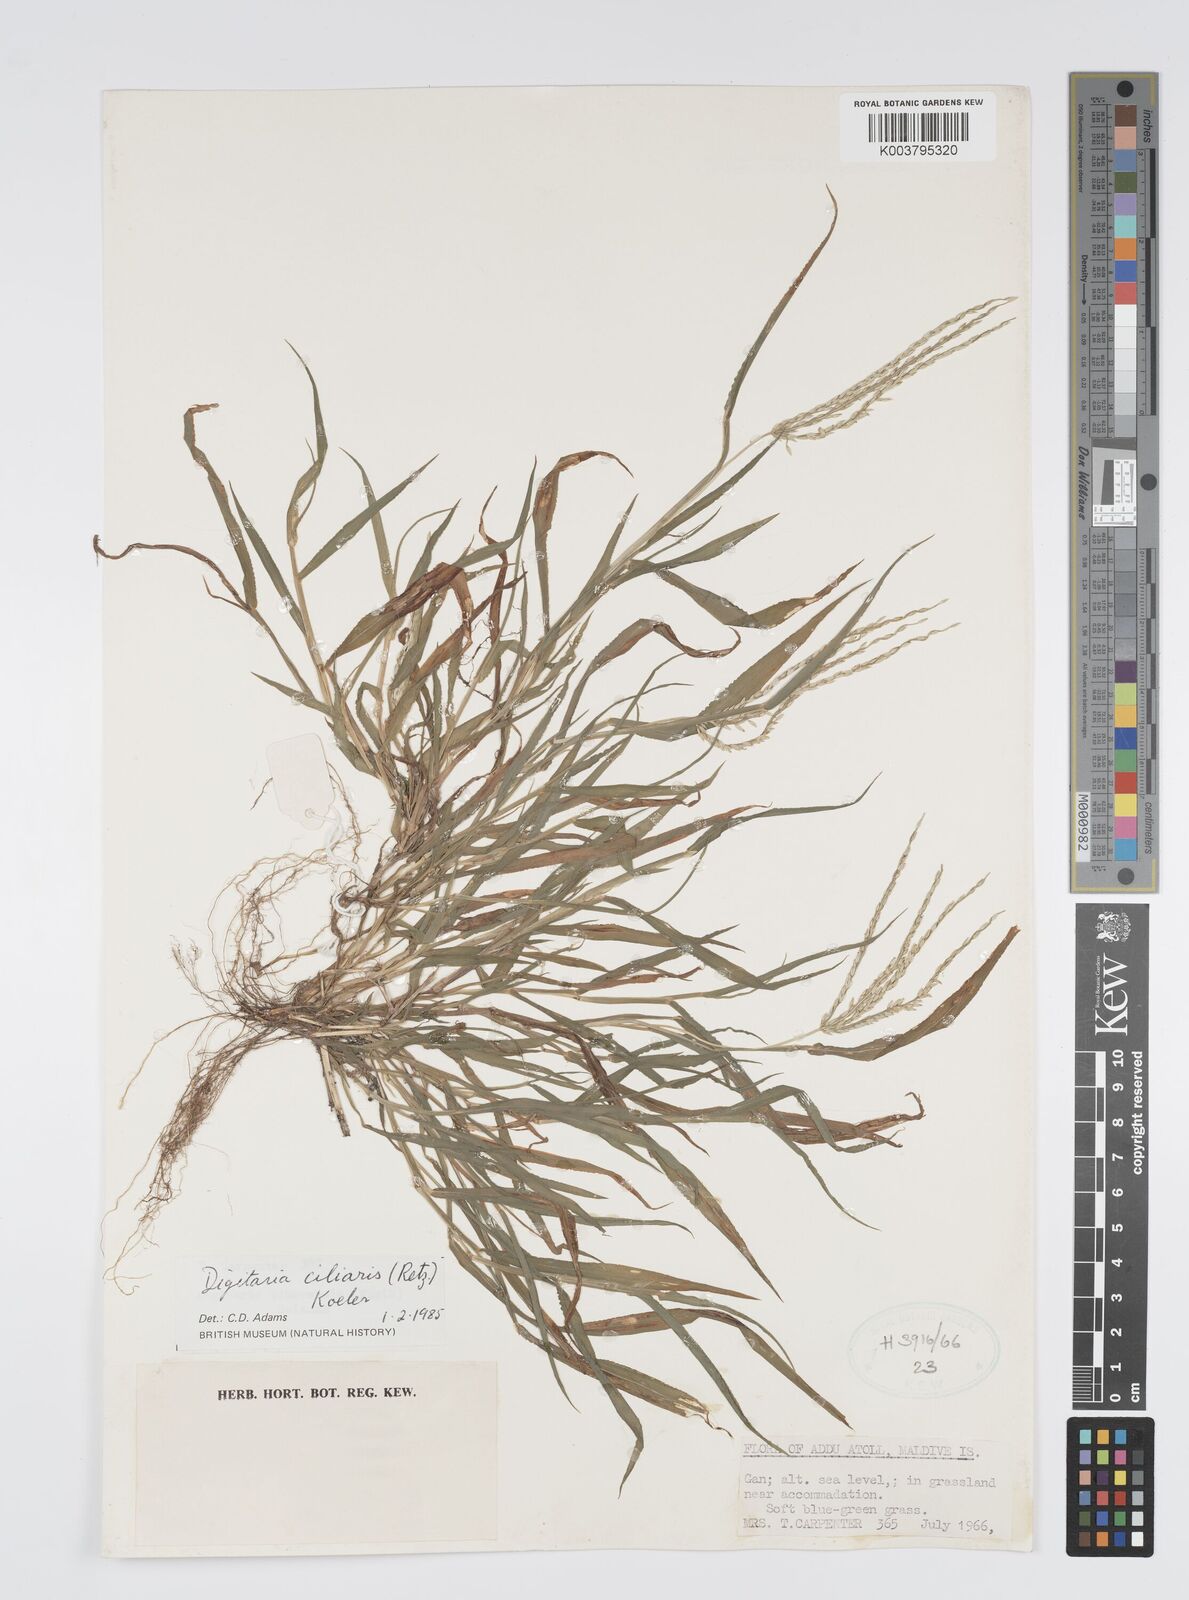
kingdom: Plantae
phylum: Tracheophyta
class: Liliopsida
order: Poales
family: Poaceae
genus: Digitaria
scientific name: Digitaria ciliaris
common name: Tropical finger-grass
